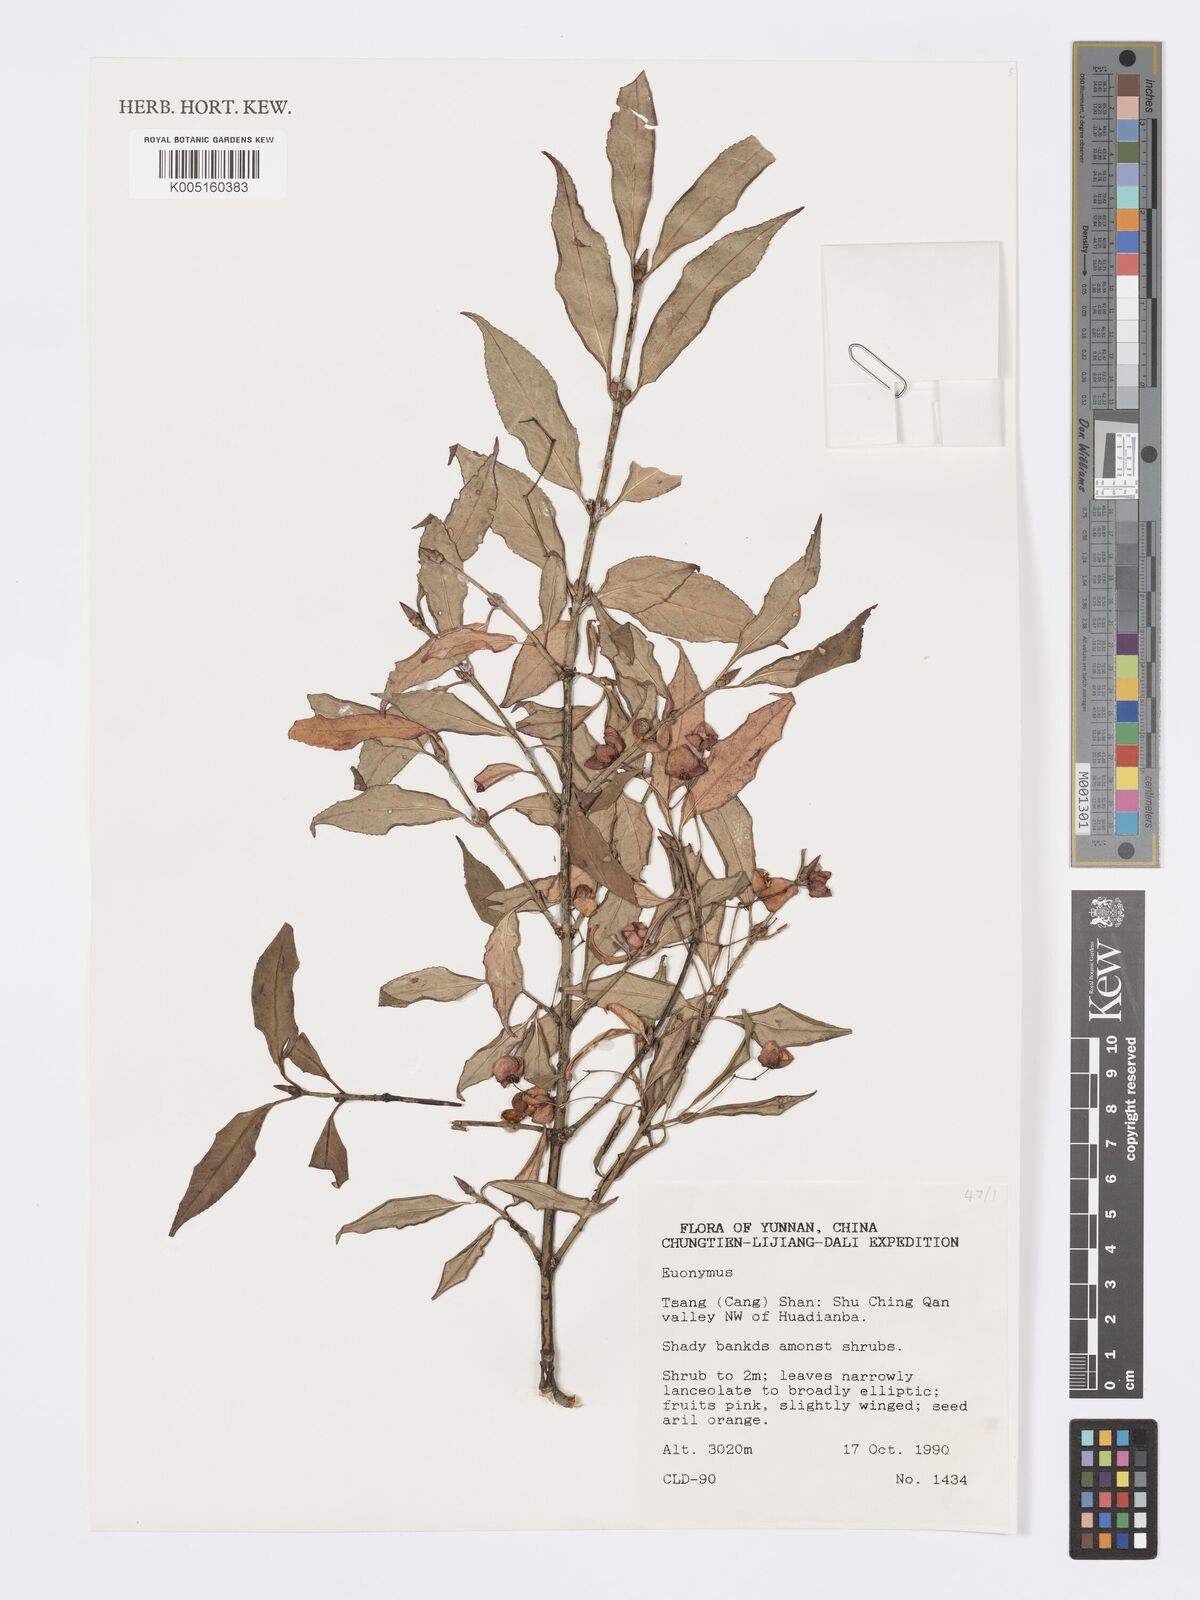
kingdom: Plantae
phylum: Tracheophyta
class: Magnoliopsida
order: Celastrales
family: Celastraceae
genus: Euonymus
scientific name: Euonymus
